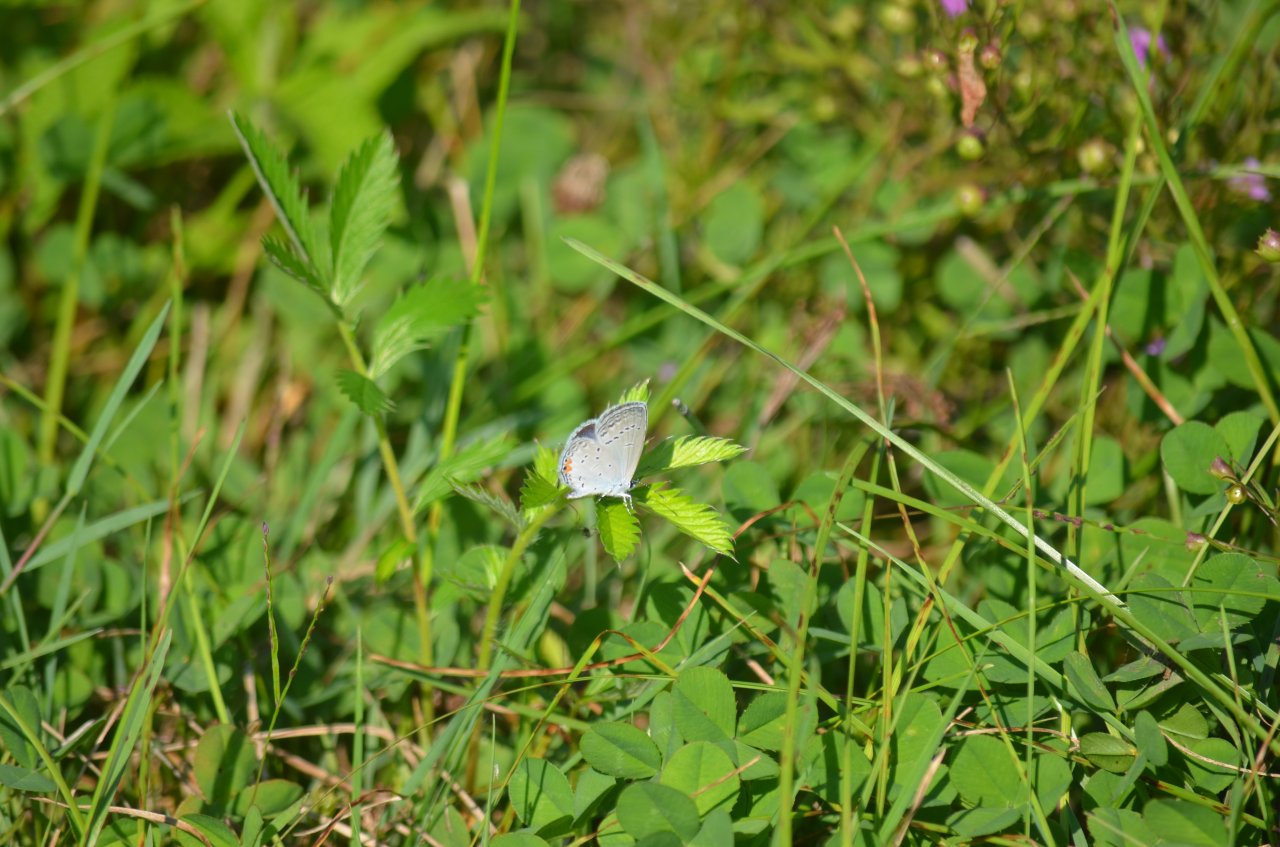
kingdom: Animalia
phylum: Arthropoda
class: Insecta
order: Lepidoptera
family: Lycaenidae
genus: Elkalyce
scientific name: Elkalyce comyntas
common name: Eastern Tailed-Blue
